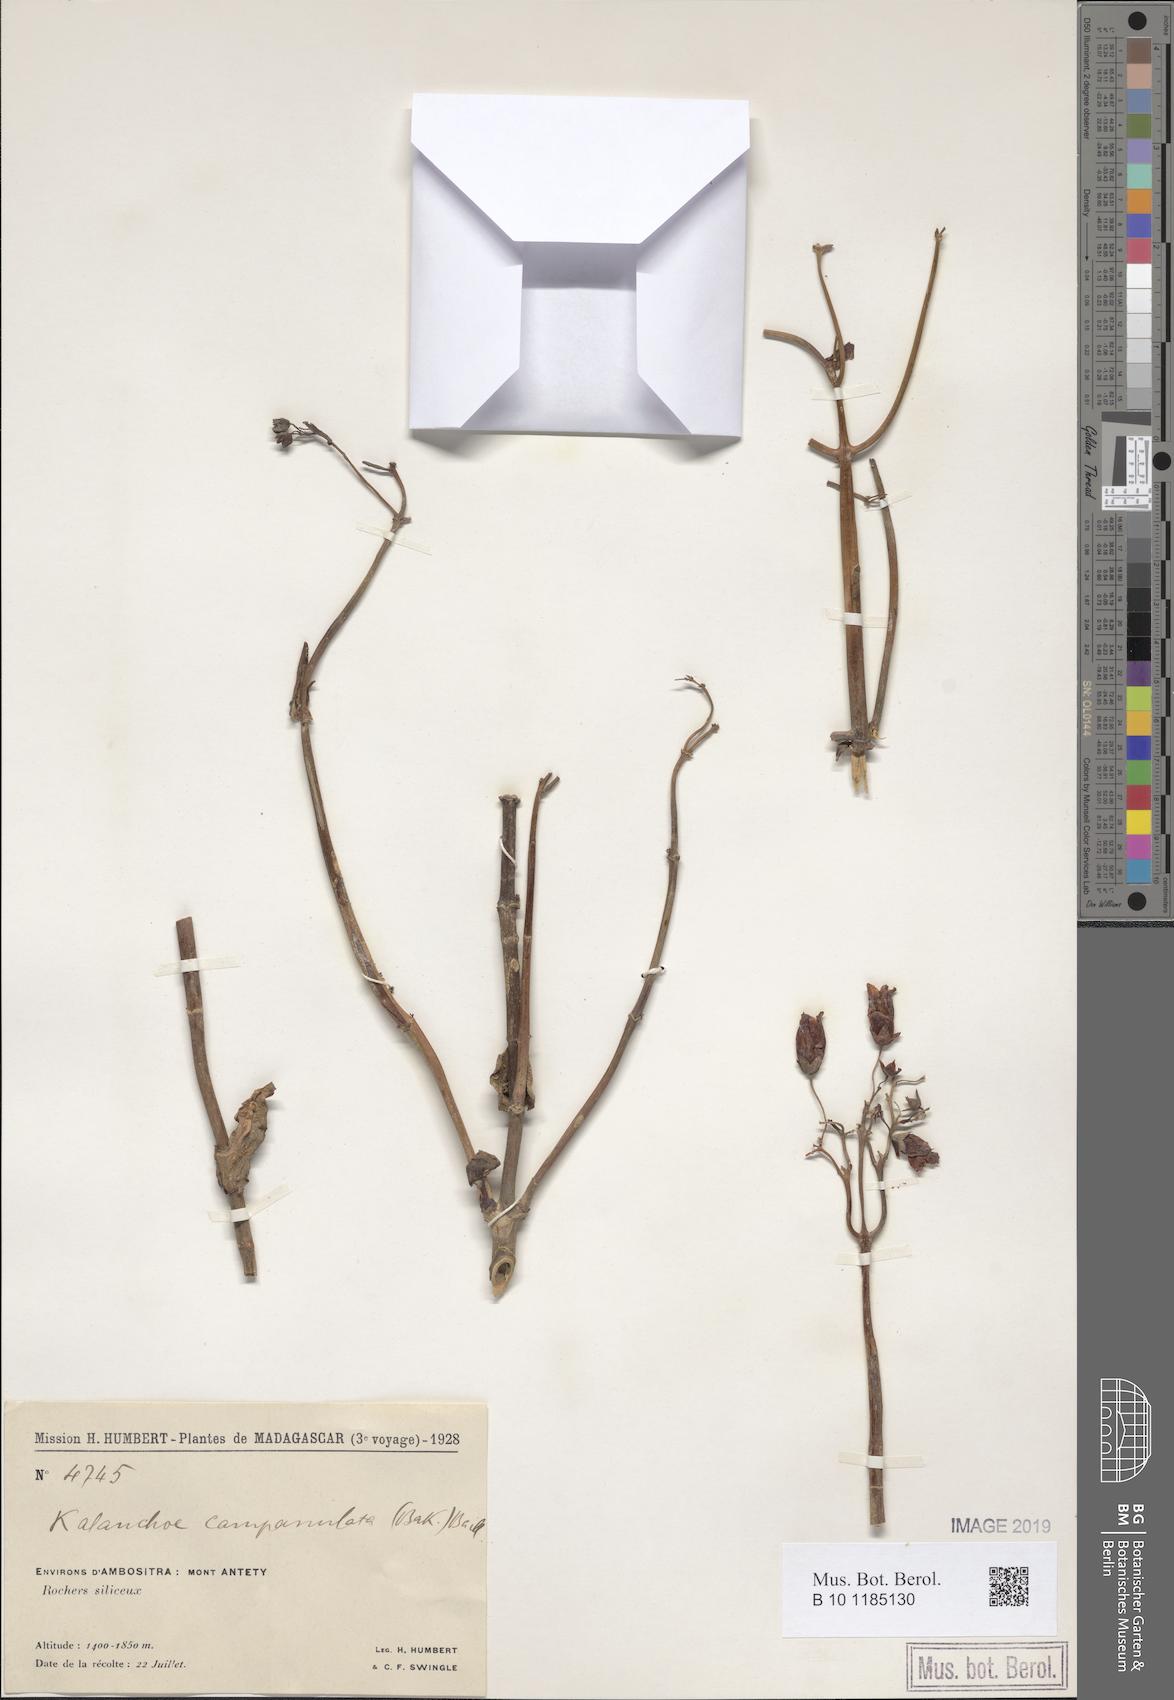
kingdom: Plantae
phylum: Tracheophyta
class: Magnoliopsida
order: Saxifragales
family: Crassulaceae
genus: Kalanchoe
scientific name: Kalanchoe campanulata
